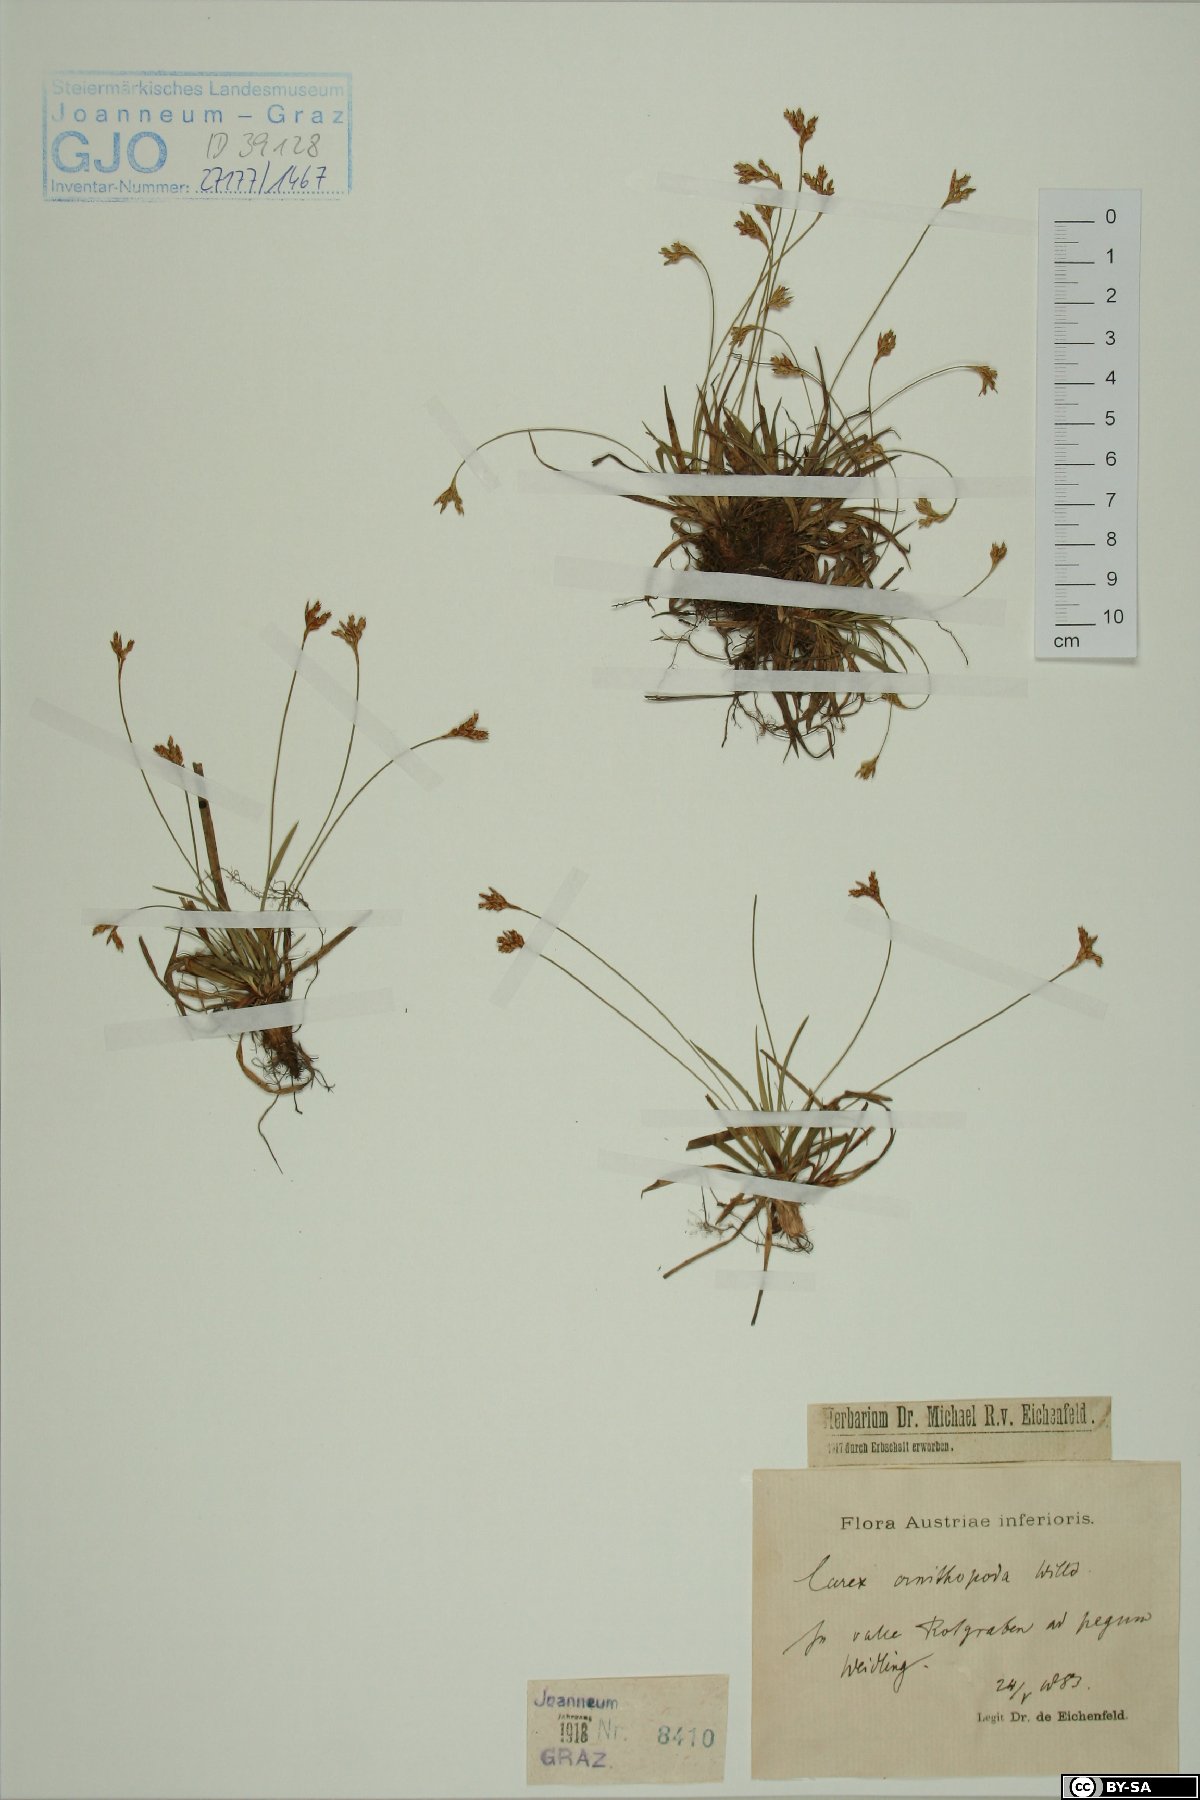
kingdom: Plantae
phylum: Tracheophyta
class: Liliopsida
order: Poales
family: Cyperaceae
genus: Carex
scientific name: Carex ornithopoda
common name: Bird's-foot sedge
